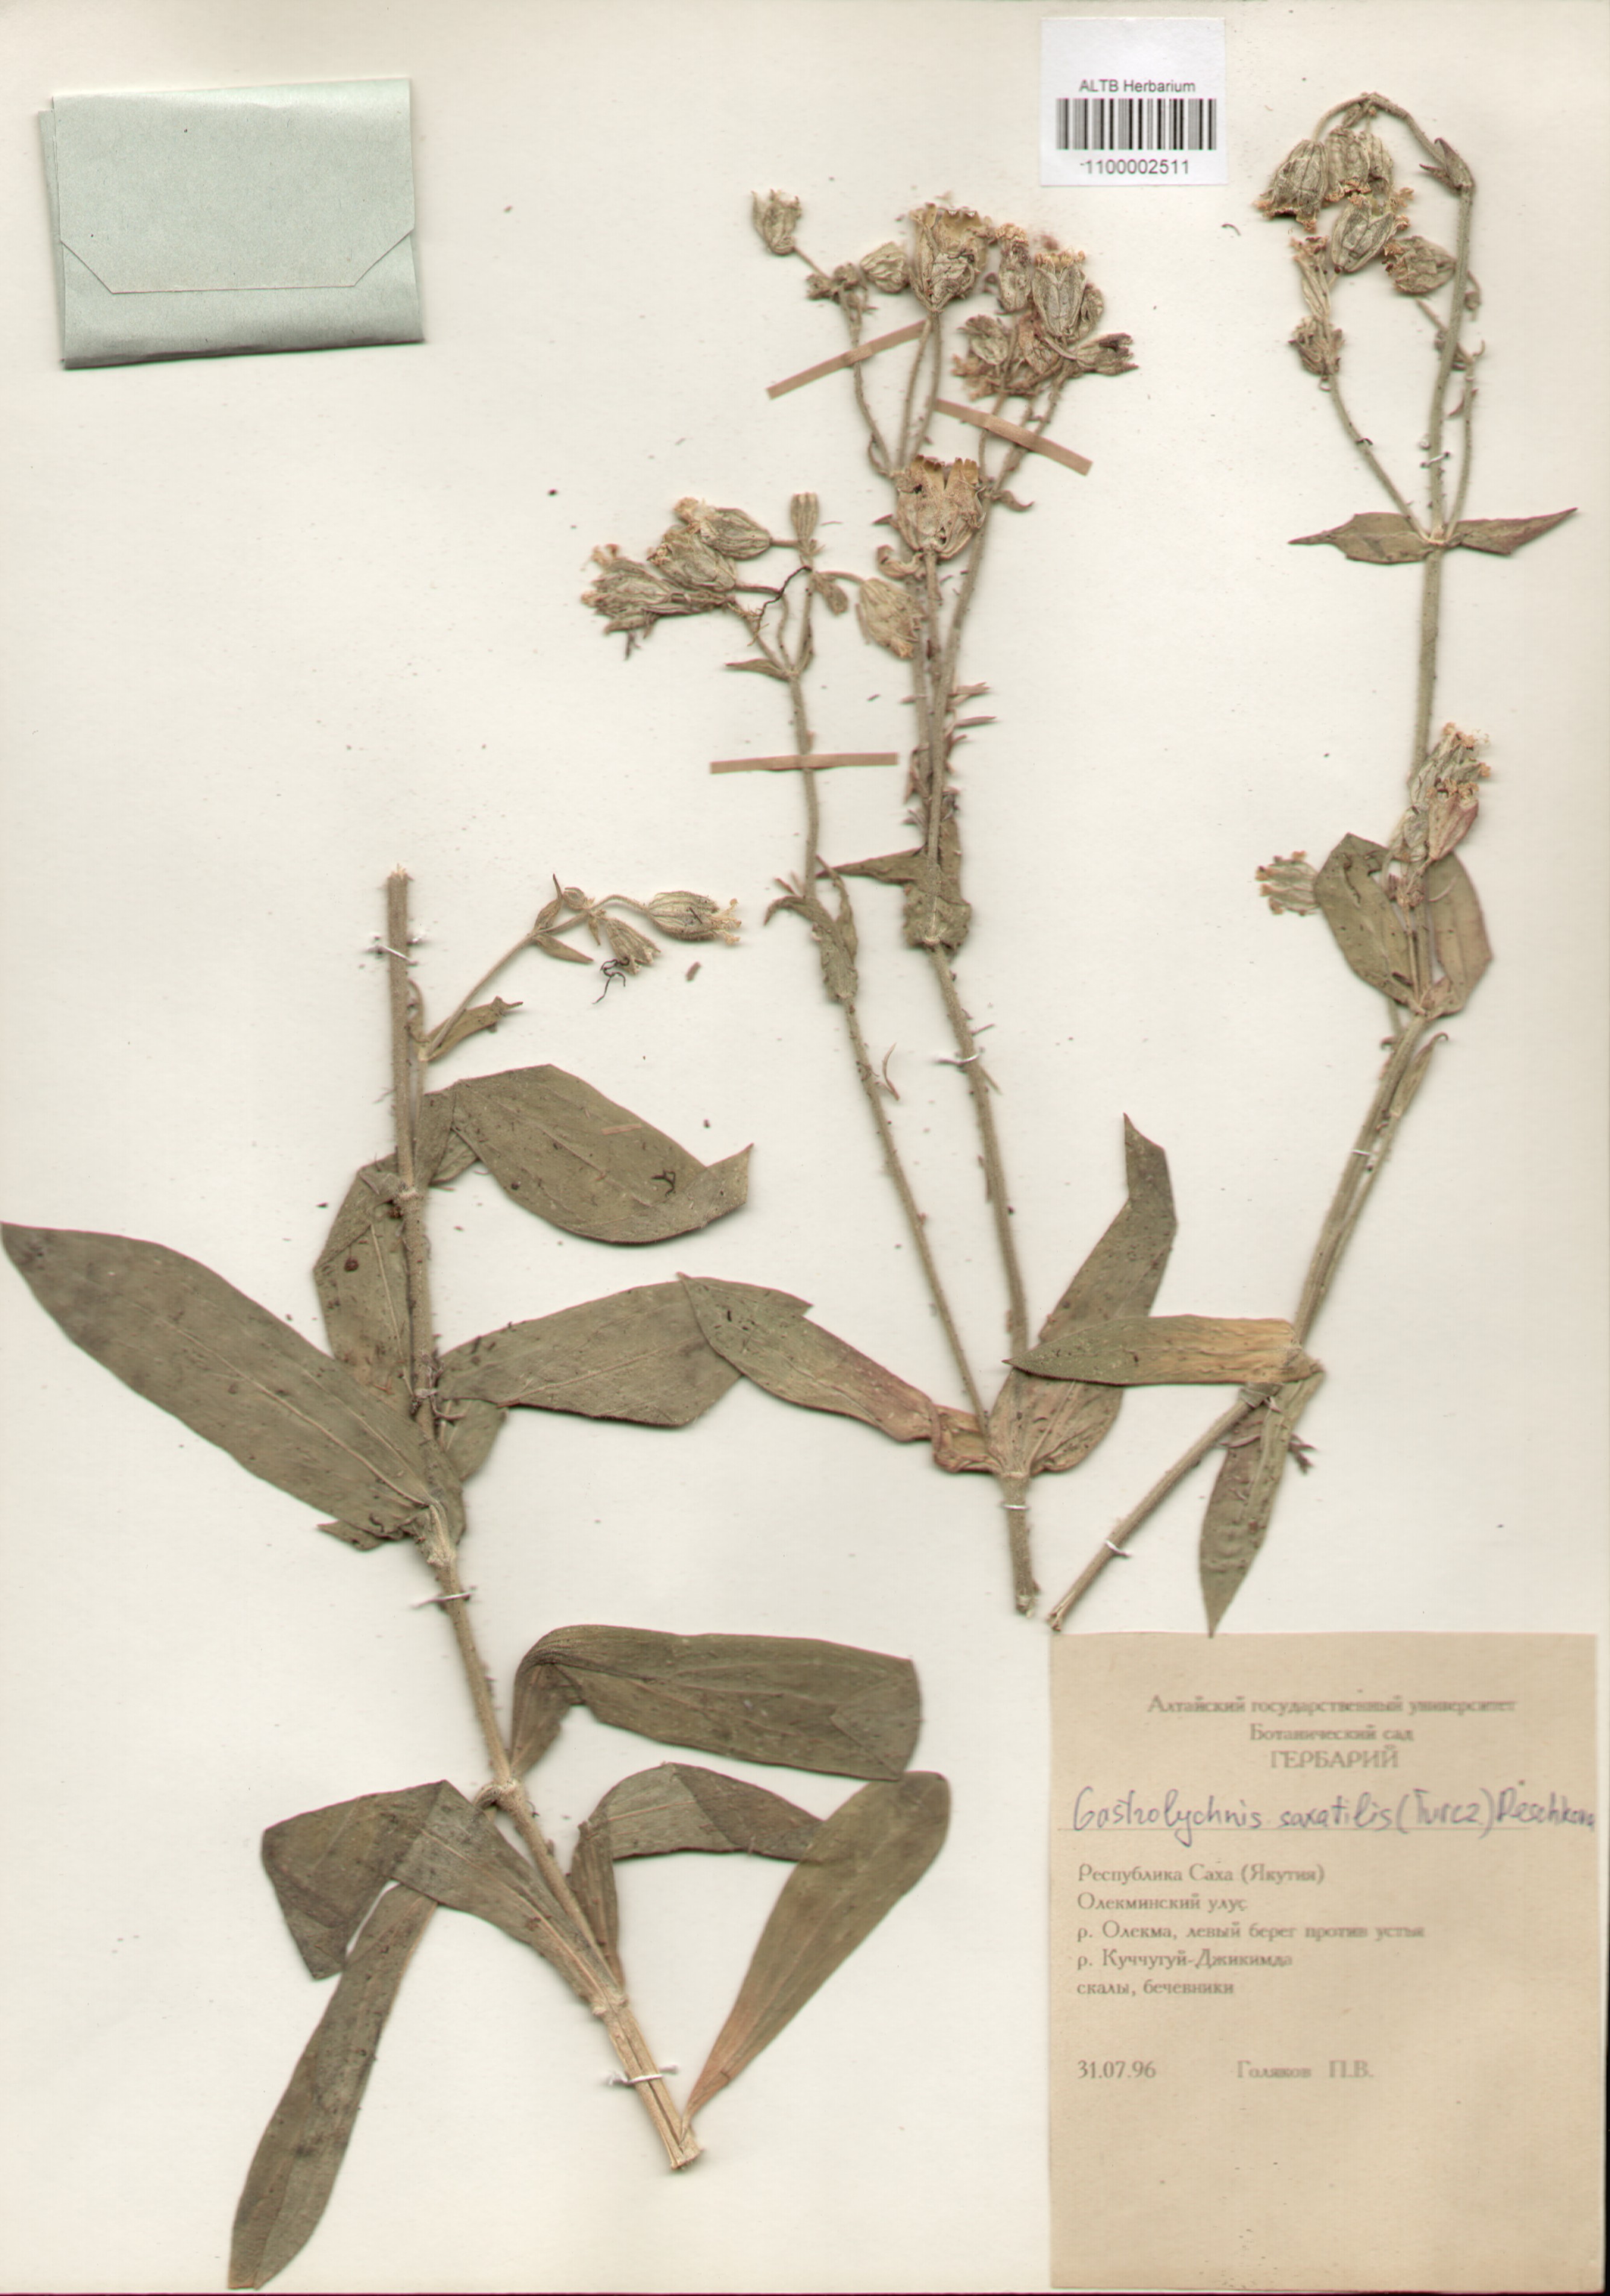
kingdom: Plantae
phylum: Tracheophyta
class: Magnoliopsida
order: Caryophyllales
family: Caryophyllaceae
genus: Silene
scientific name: Silene tolmatchevii
